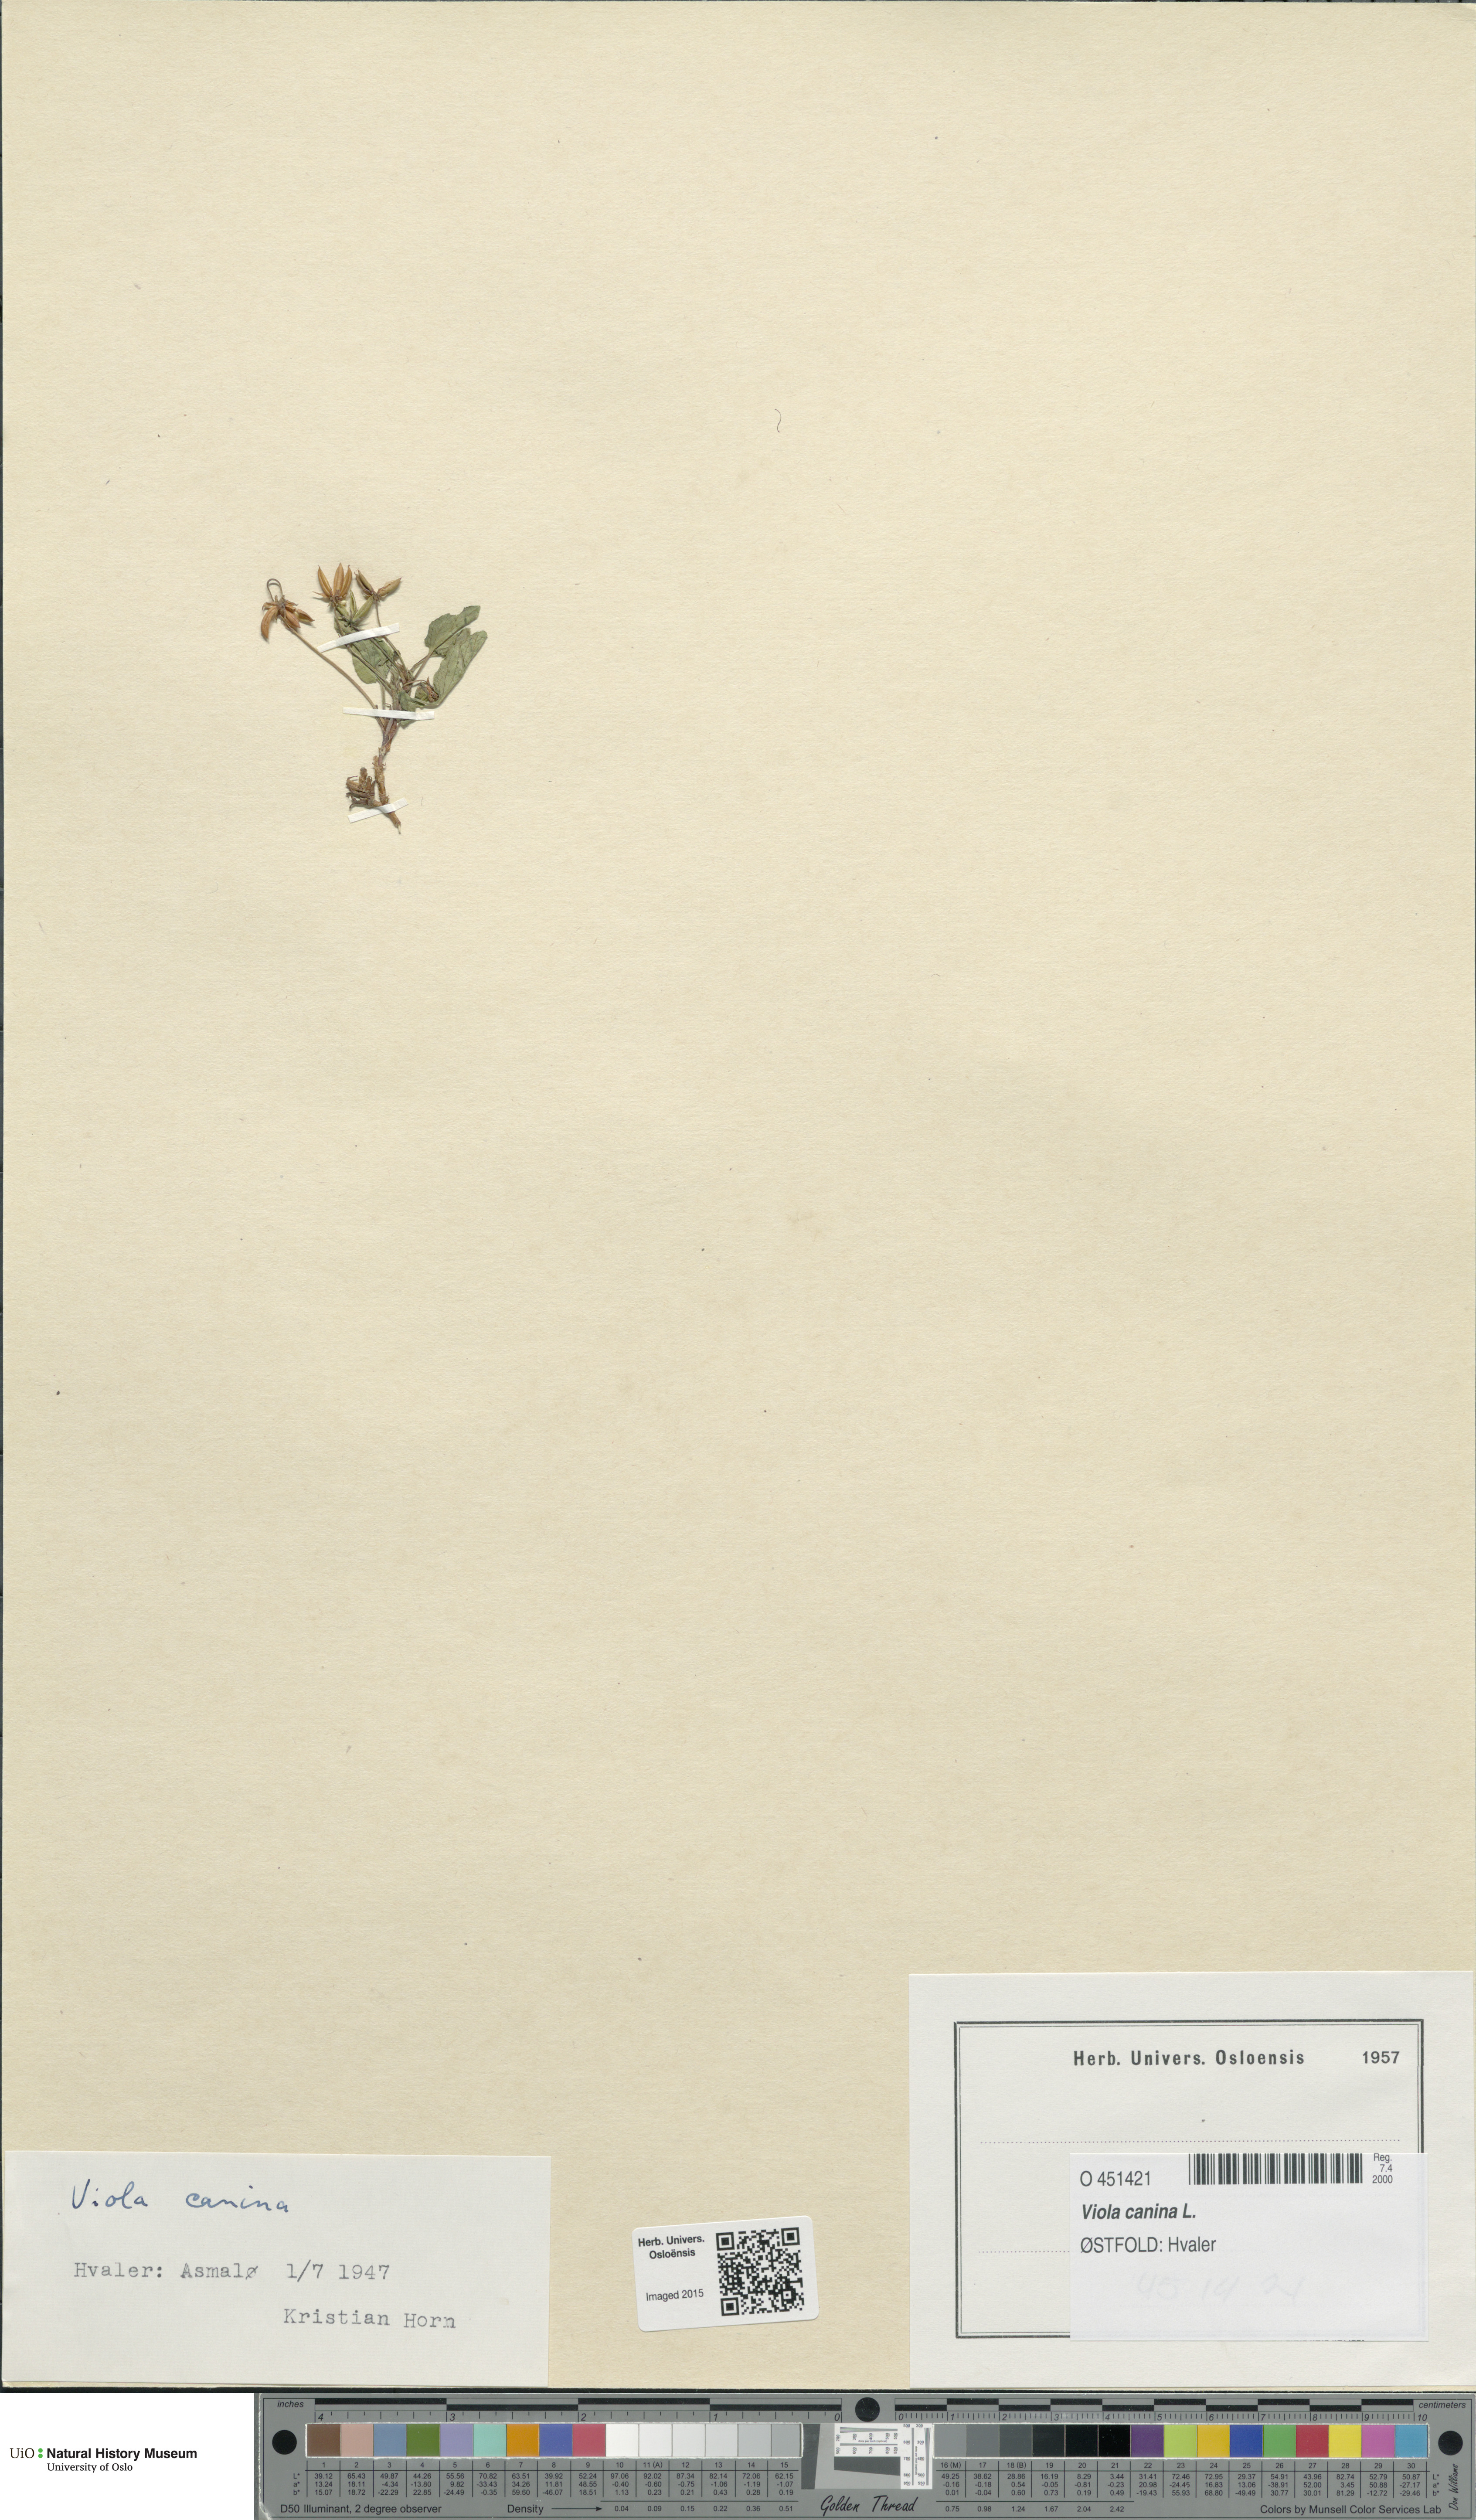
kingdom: Plantae
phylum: Tracheophyta
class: Magnoliopsida
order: Malpighiales
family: Violaceae
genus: Viola
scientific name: Viola canina
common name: Heath dog-violet
